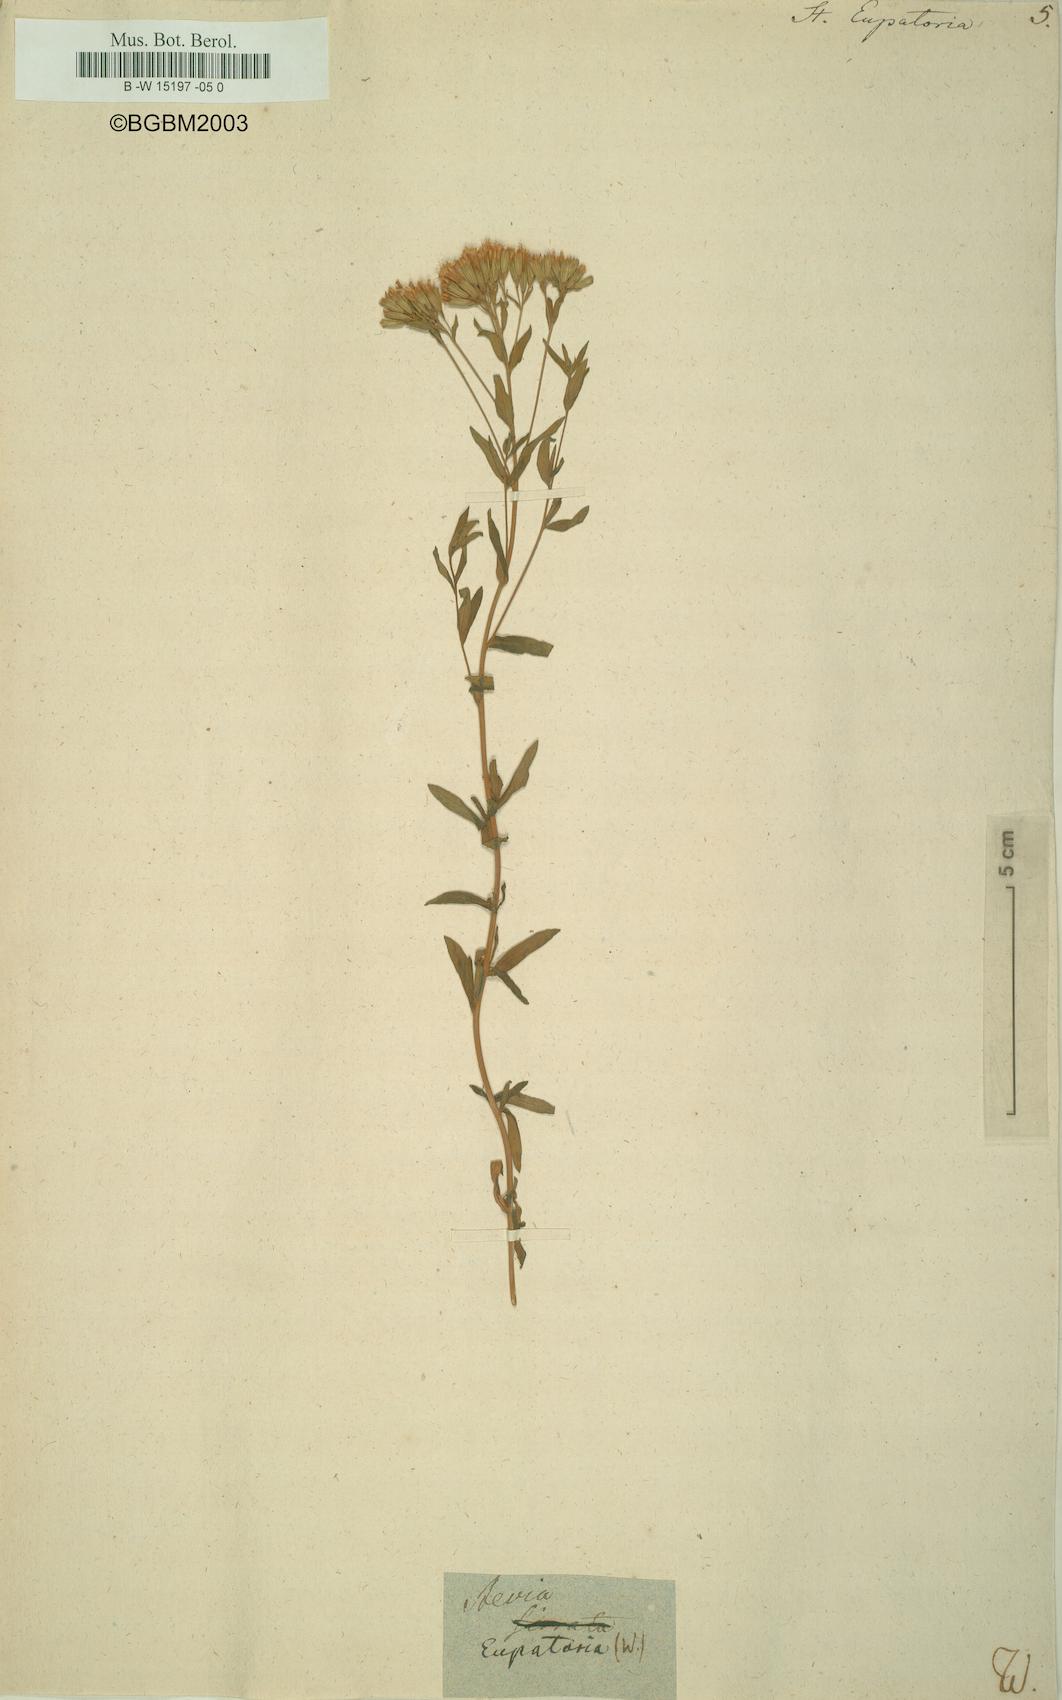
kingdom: Plantae
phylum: Tracheophyta
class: Magnoliopsida
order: Asterales
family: Asteraceae
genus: Stevia
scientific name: Stevia eupatoria
